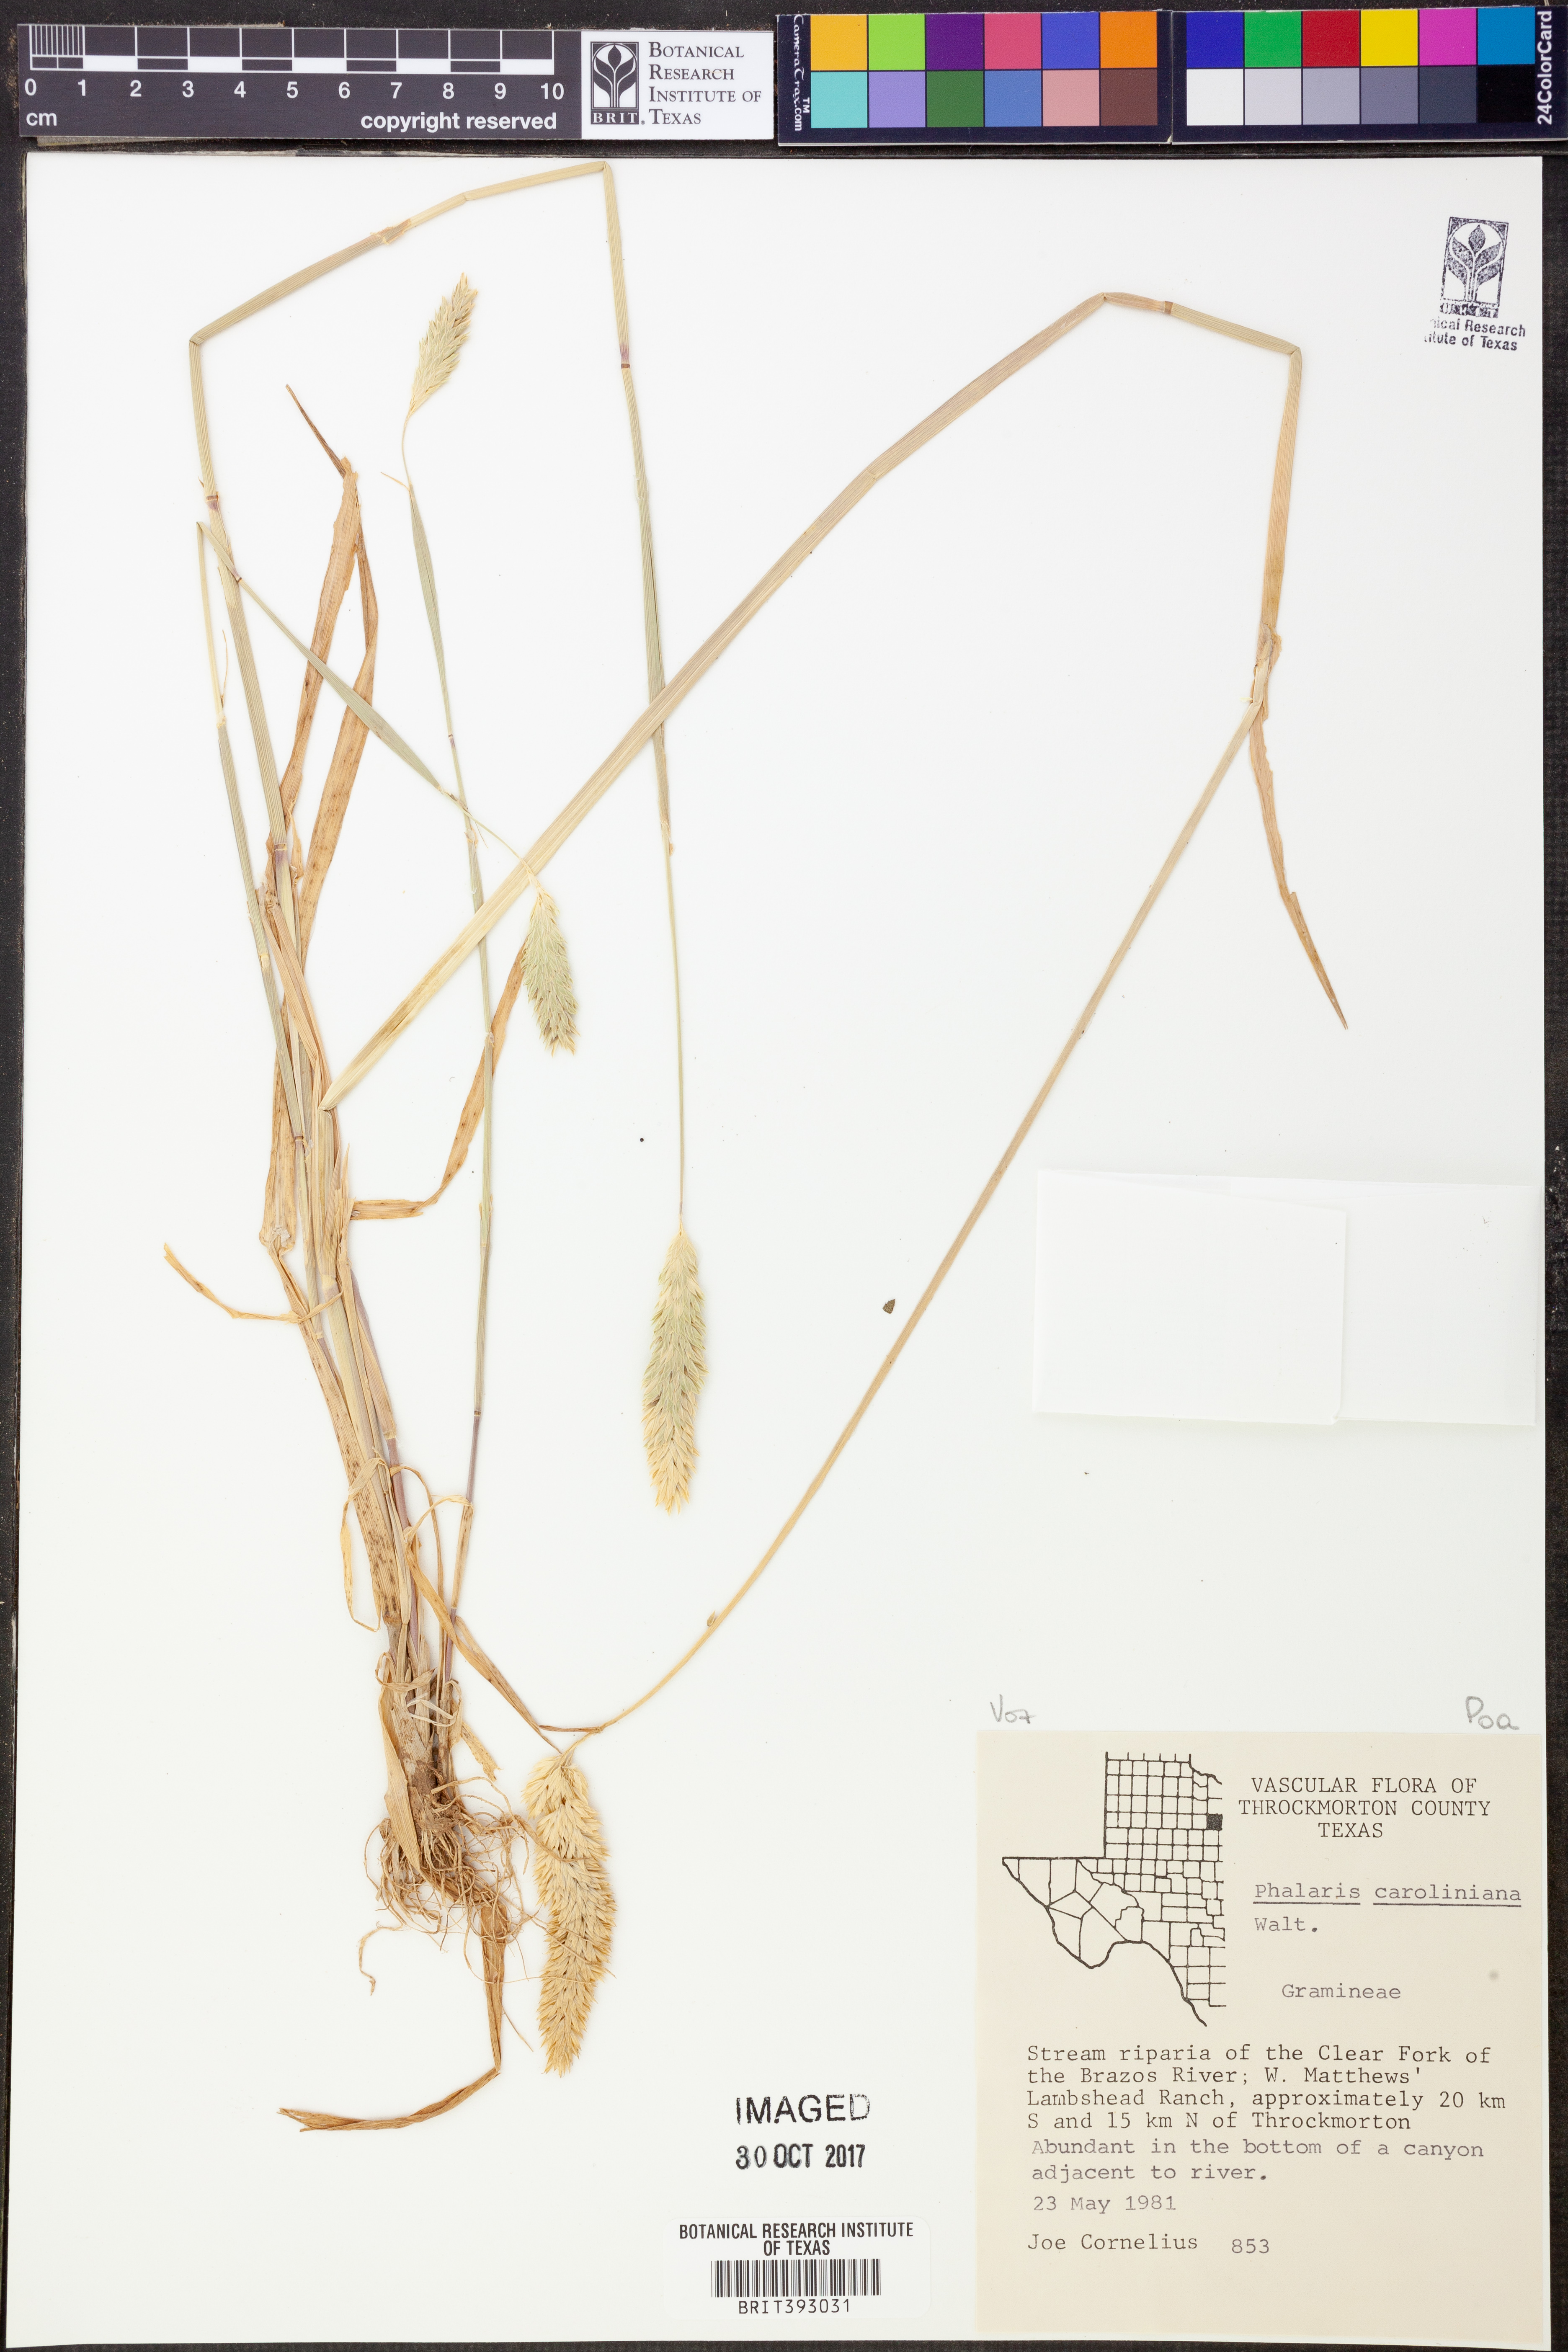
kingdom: Plantae
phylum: Tracheophyta
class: Liliopsida
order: Poales
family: Poaceae
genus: Phalaris
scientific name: Phalaris caroliniana
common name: May grass
